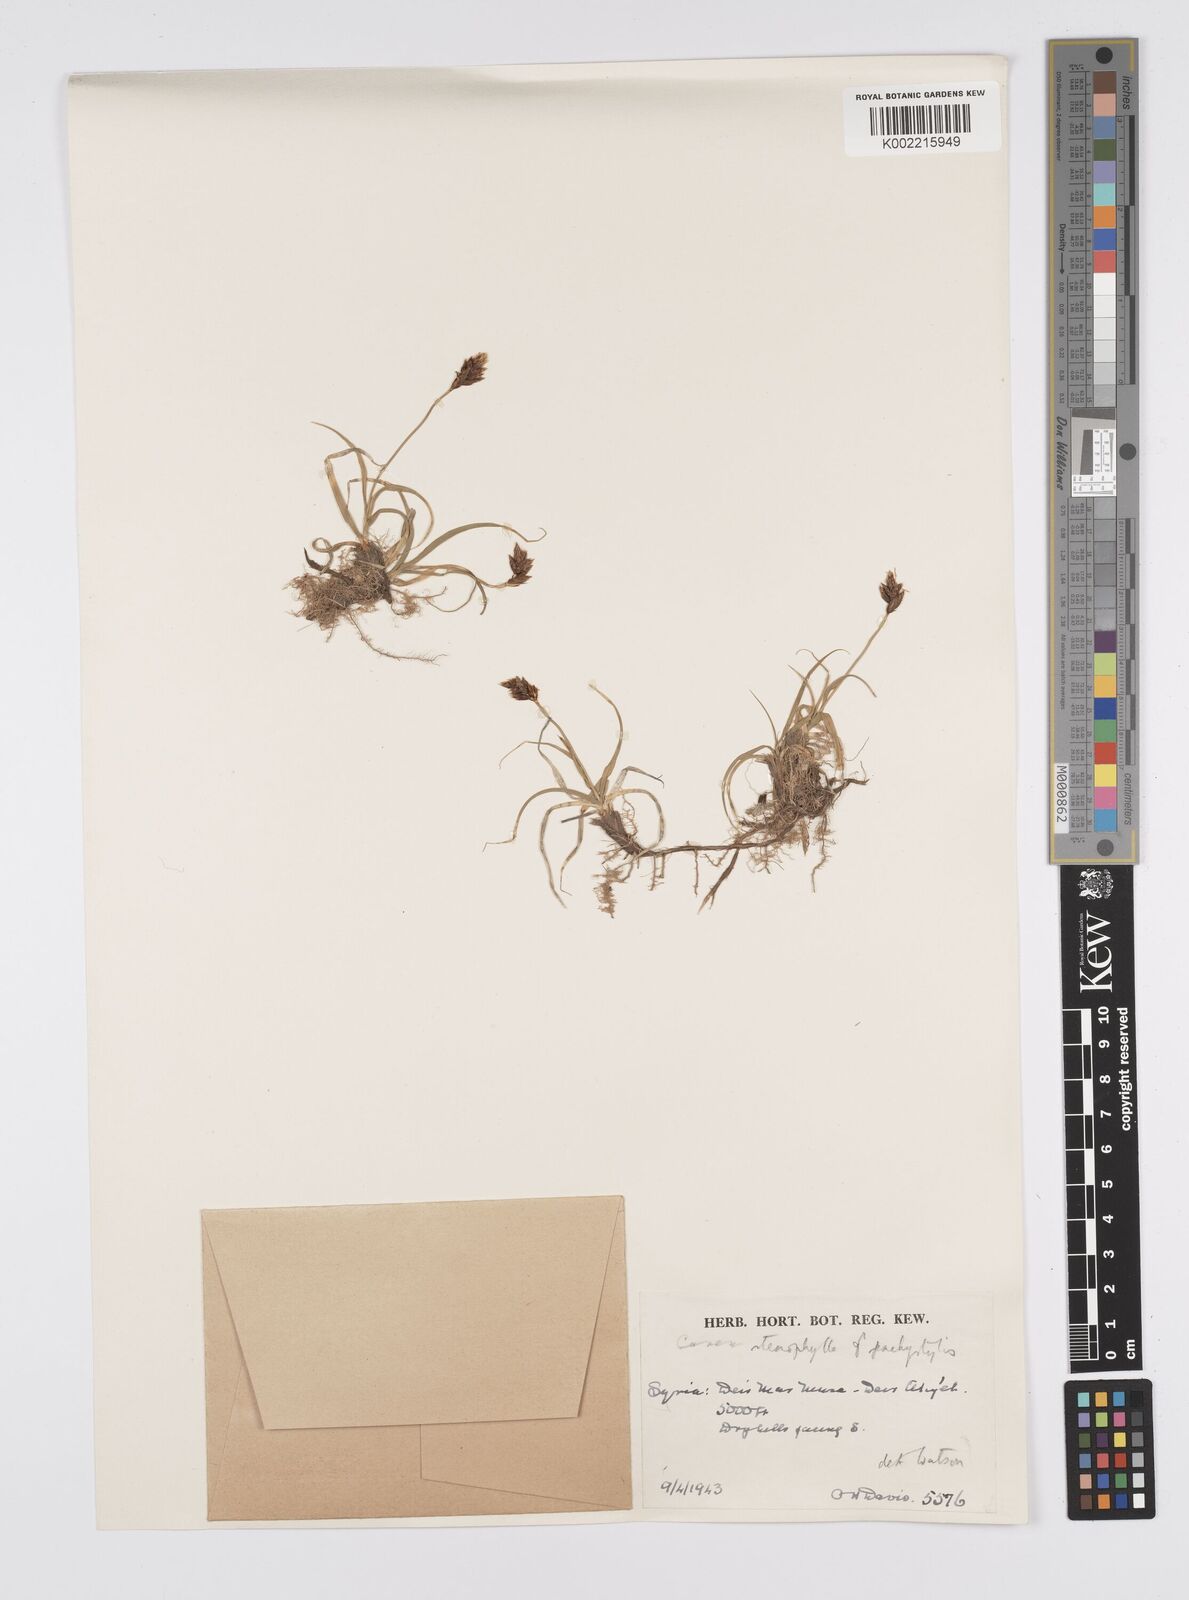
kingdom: Plantae
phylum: Tracheophyta
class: Liliopsida
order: Poales
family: Cyperaceae
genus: Carex
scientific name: Carex pachystylis
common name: Thick-stem sedge
